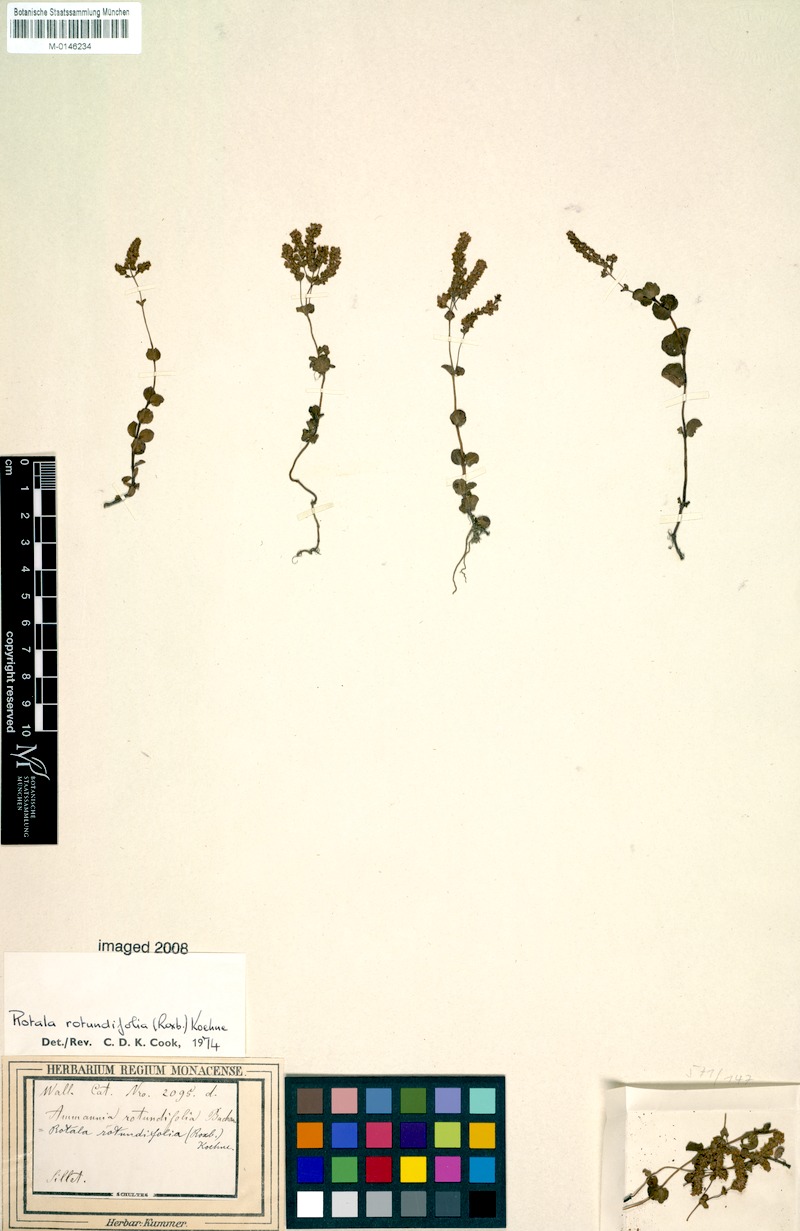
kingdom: Plantae
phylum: Tracheophyta
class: Magnoliopsida
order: Myrtales
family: Lythraceae
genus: Rotala
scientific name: Rotala rotundifolia
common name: Roundleaf toothcup
